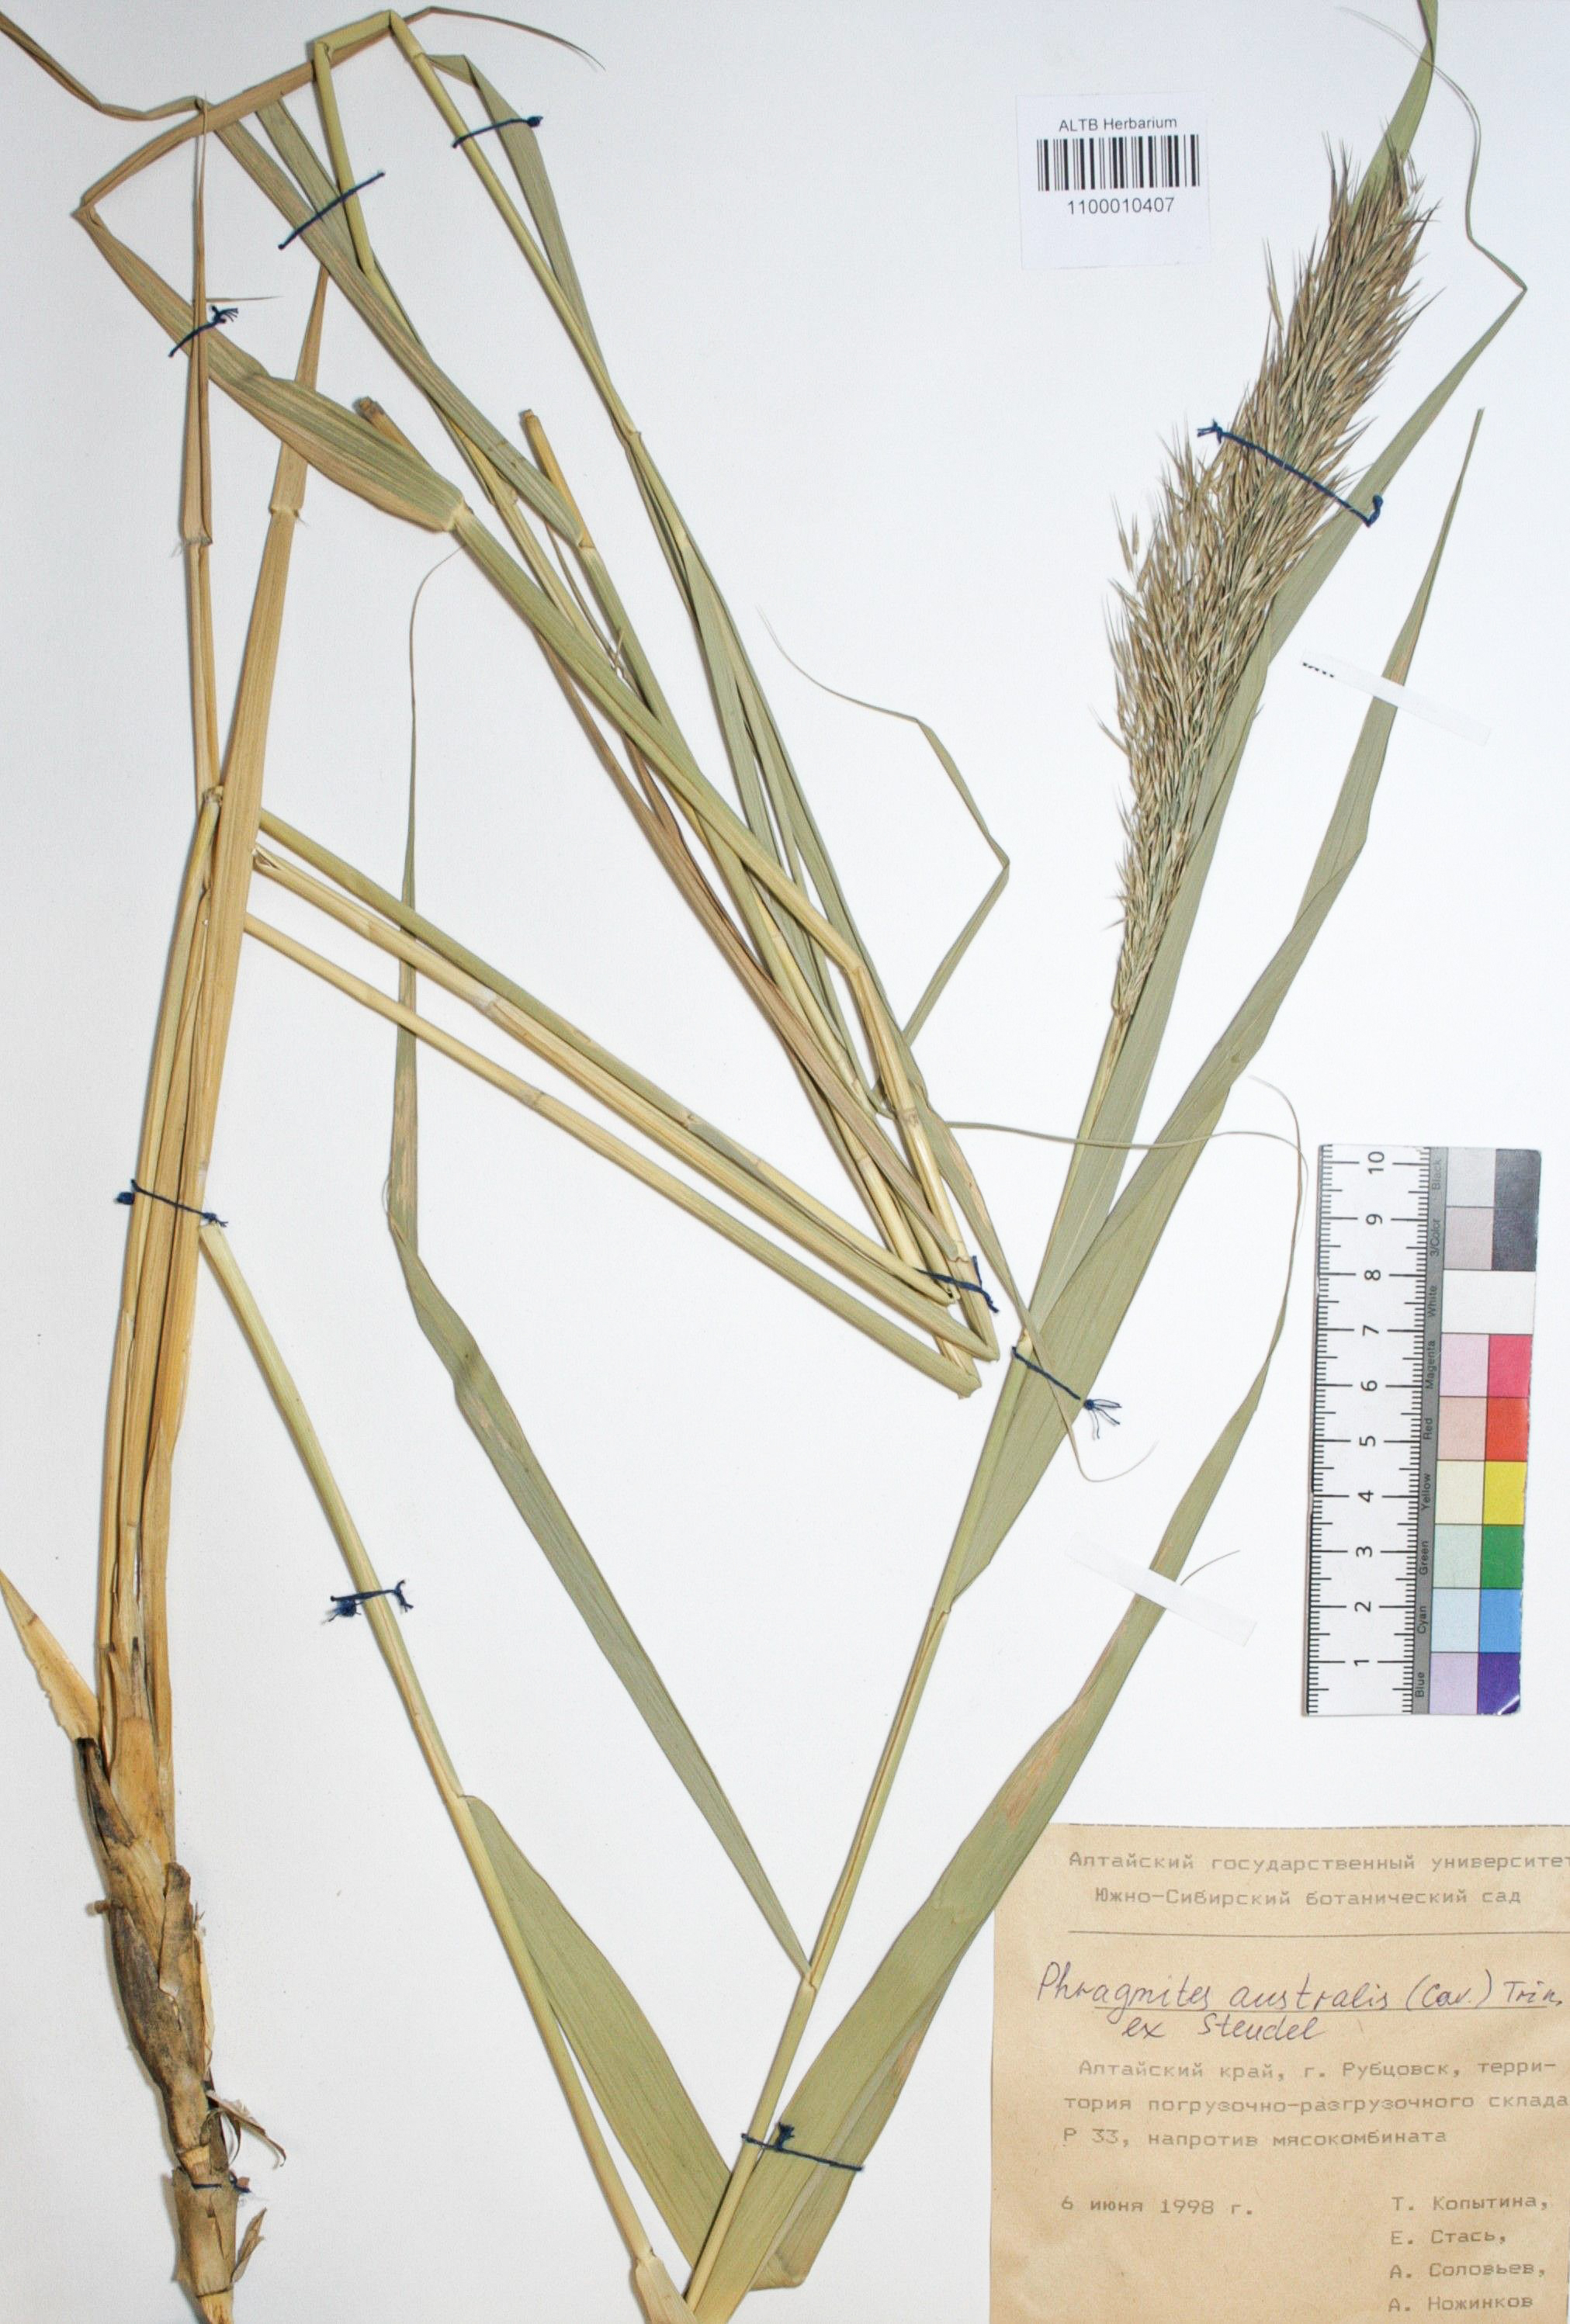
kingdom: Plantae
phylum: Tracheophyta
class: Liliopsida
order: Poales
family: Poaceae
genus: Phragmites
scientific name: Phragmites australis
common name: Common reed
